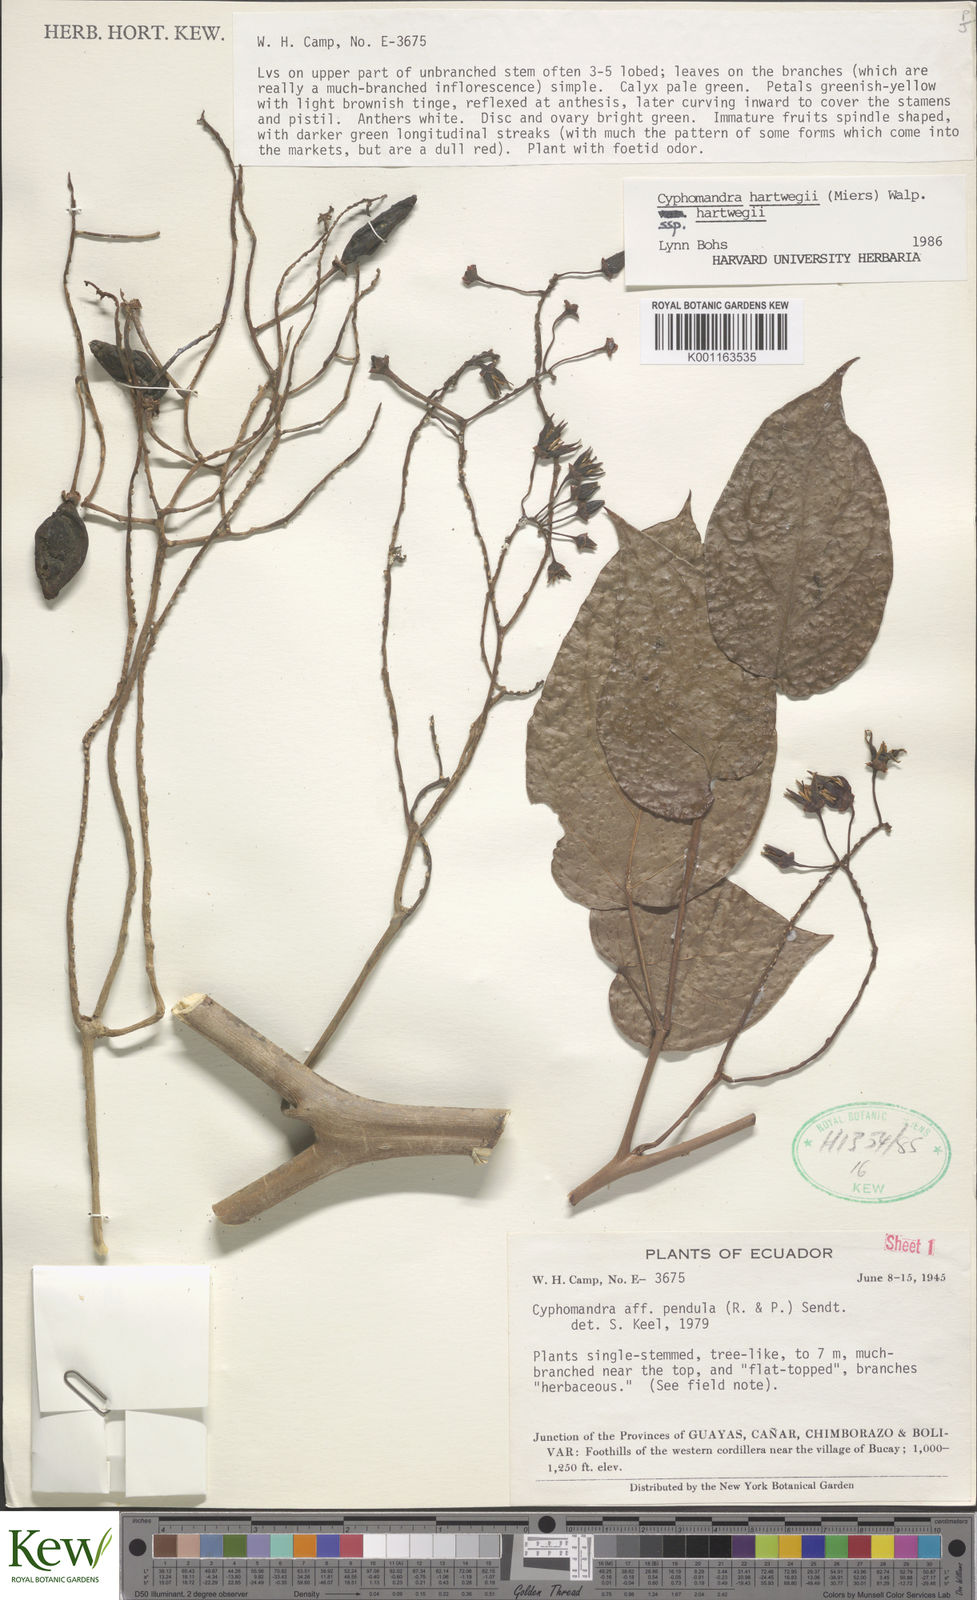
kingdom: Plantae
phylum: Tracheophyta
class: Magnoliopsida
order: Solanales
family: Solanaceae
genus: Solanum
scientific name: Solanum splendens
